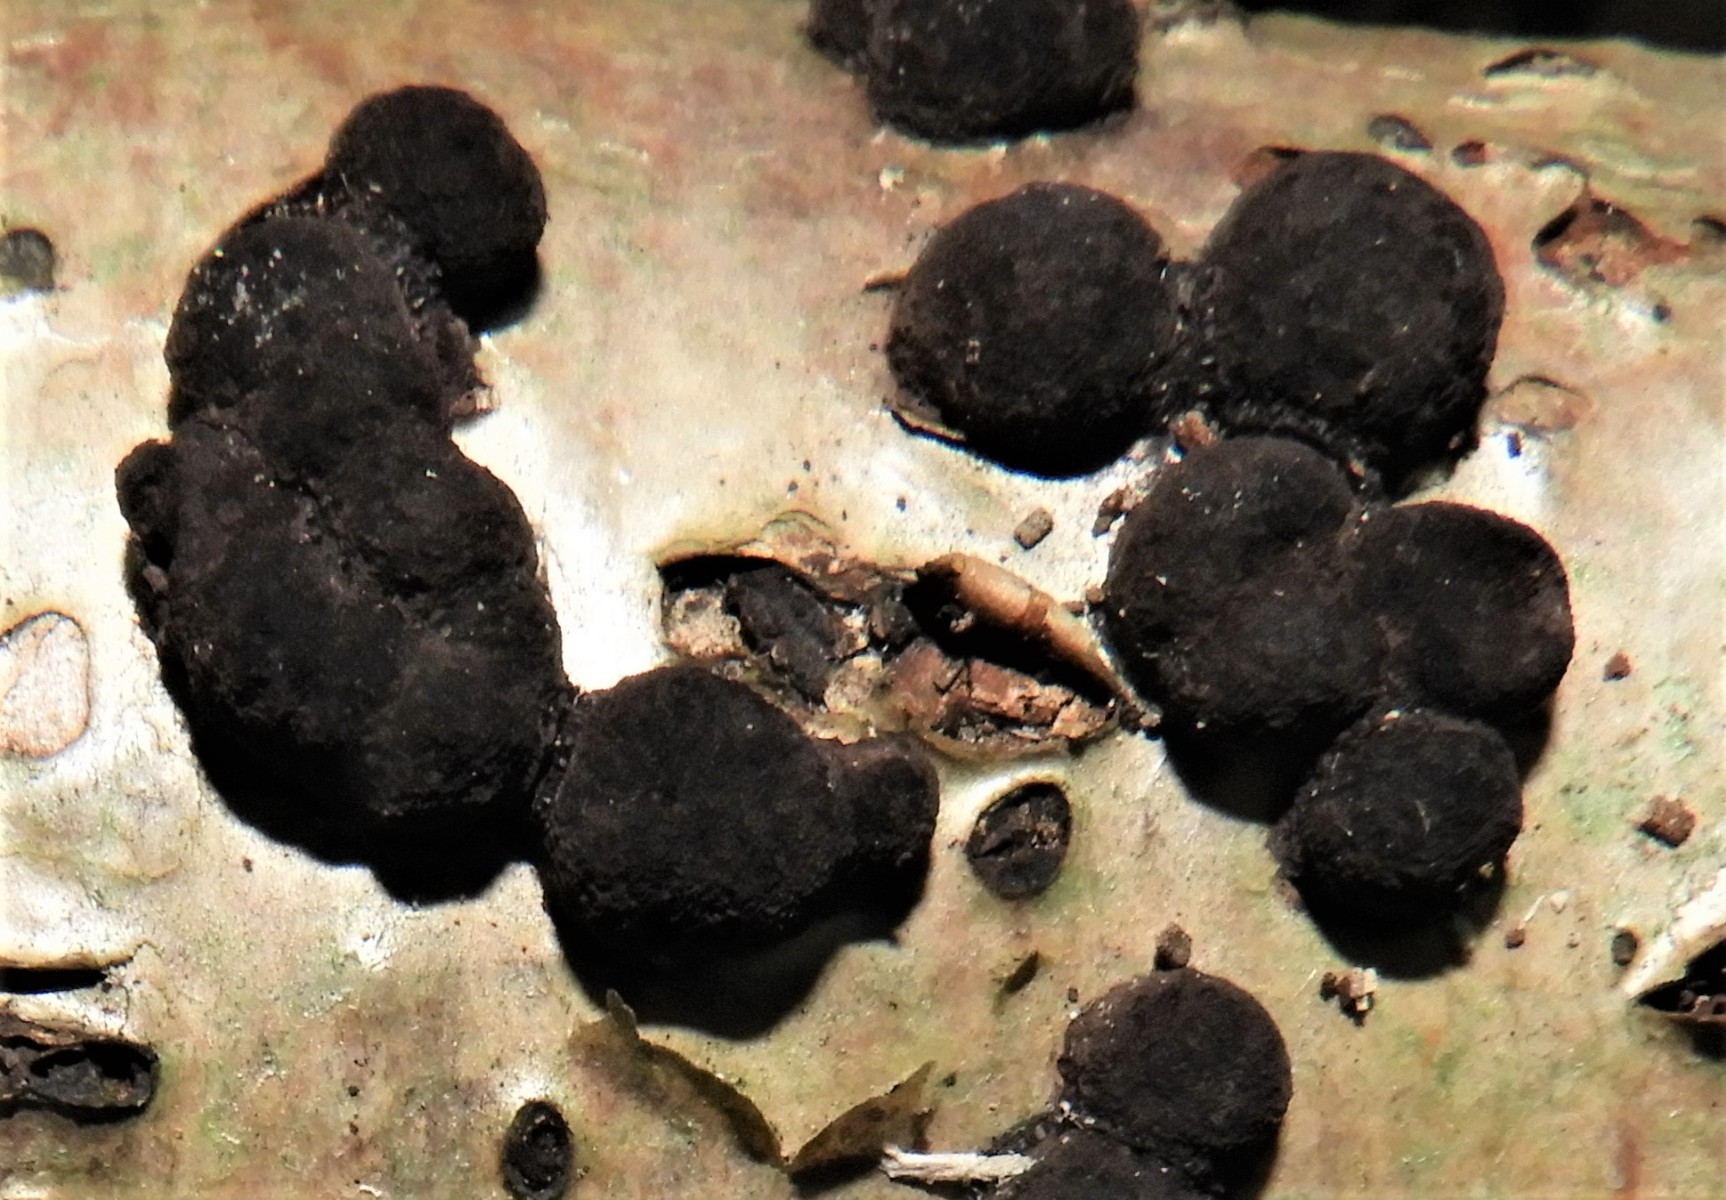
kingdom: Fungi
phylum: Ascomycota
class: Sordariomycetes
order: Xylariales
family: Hypoxylaceae
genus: Hypoxylon
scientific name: Hypoxylon fuscum
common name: kegleformet kulbær
